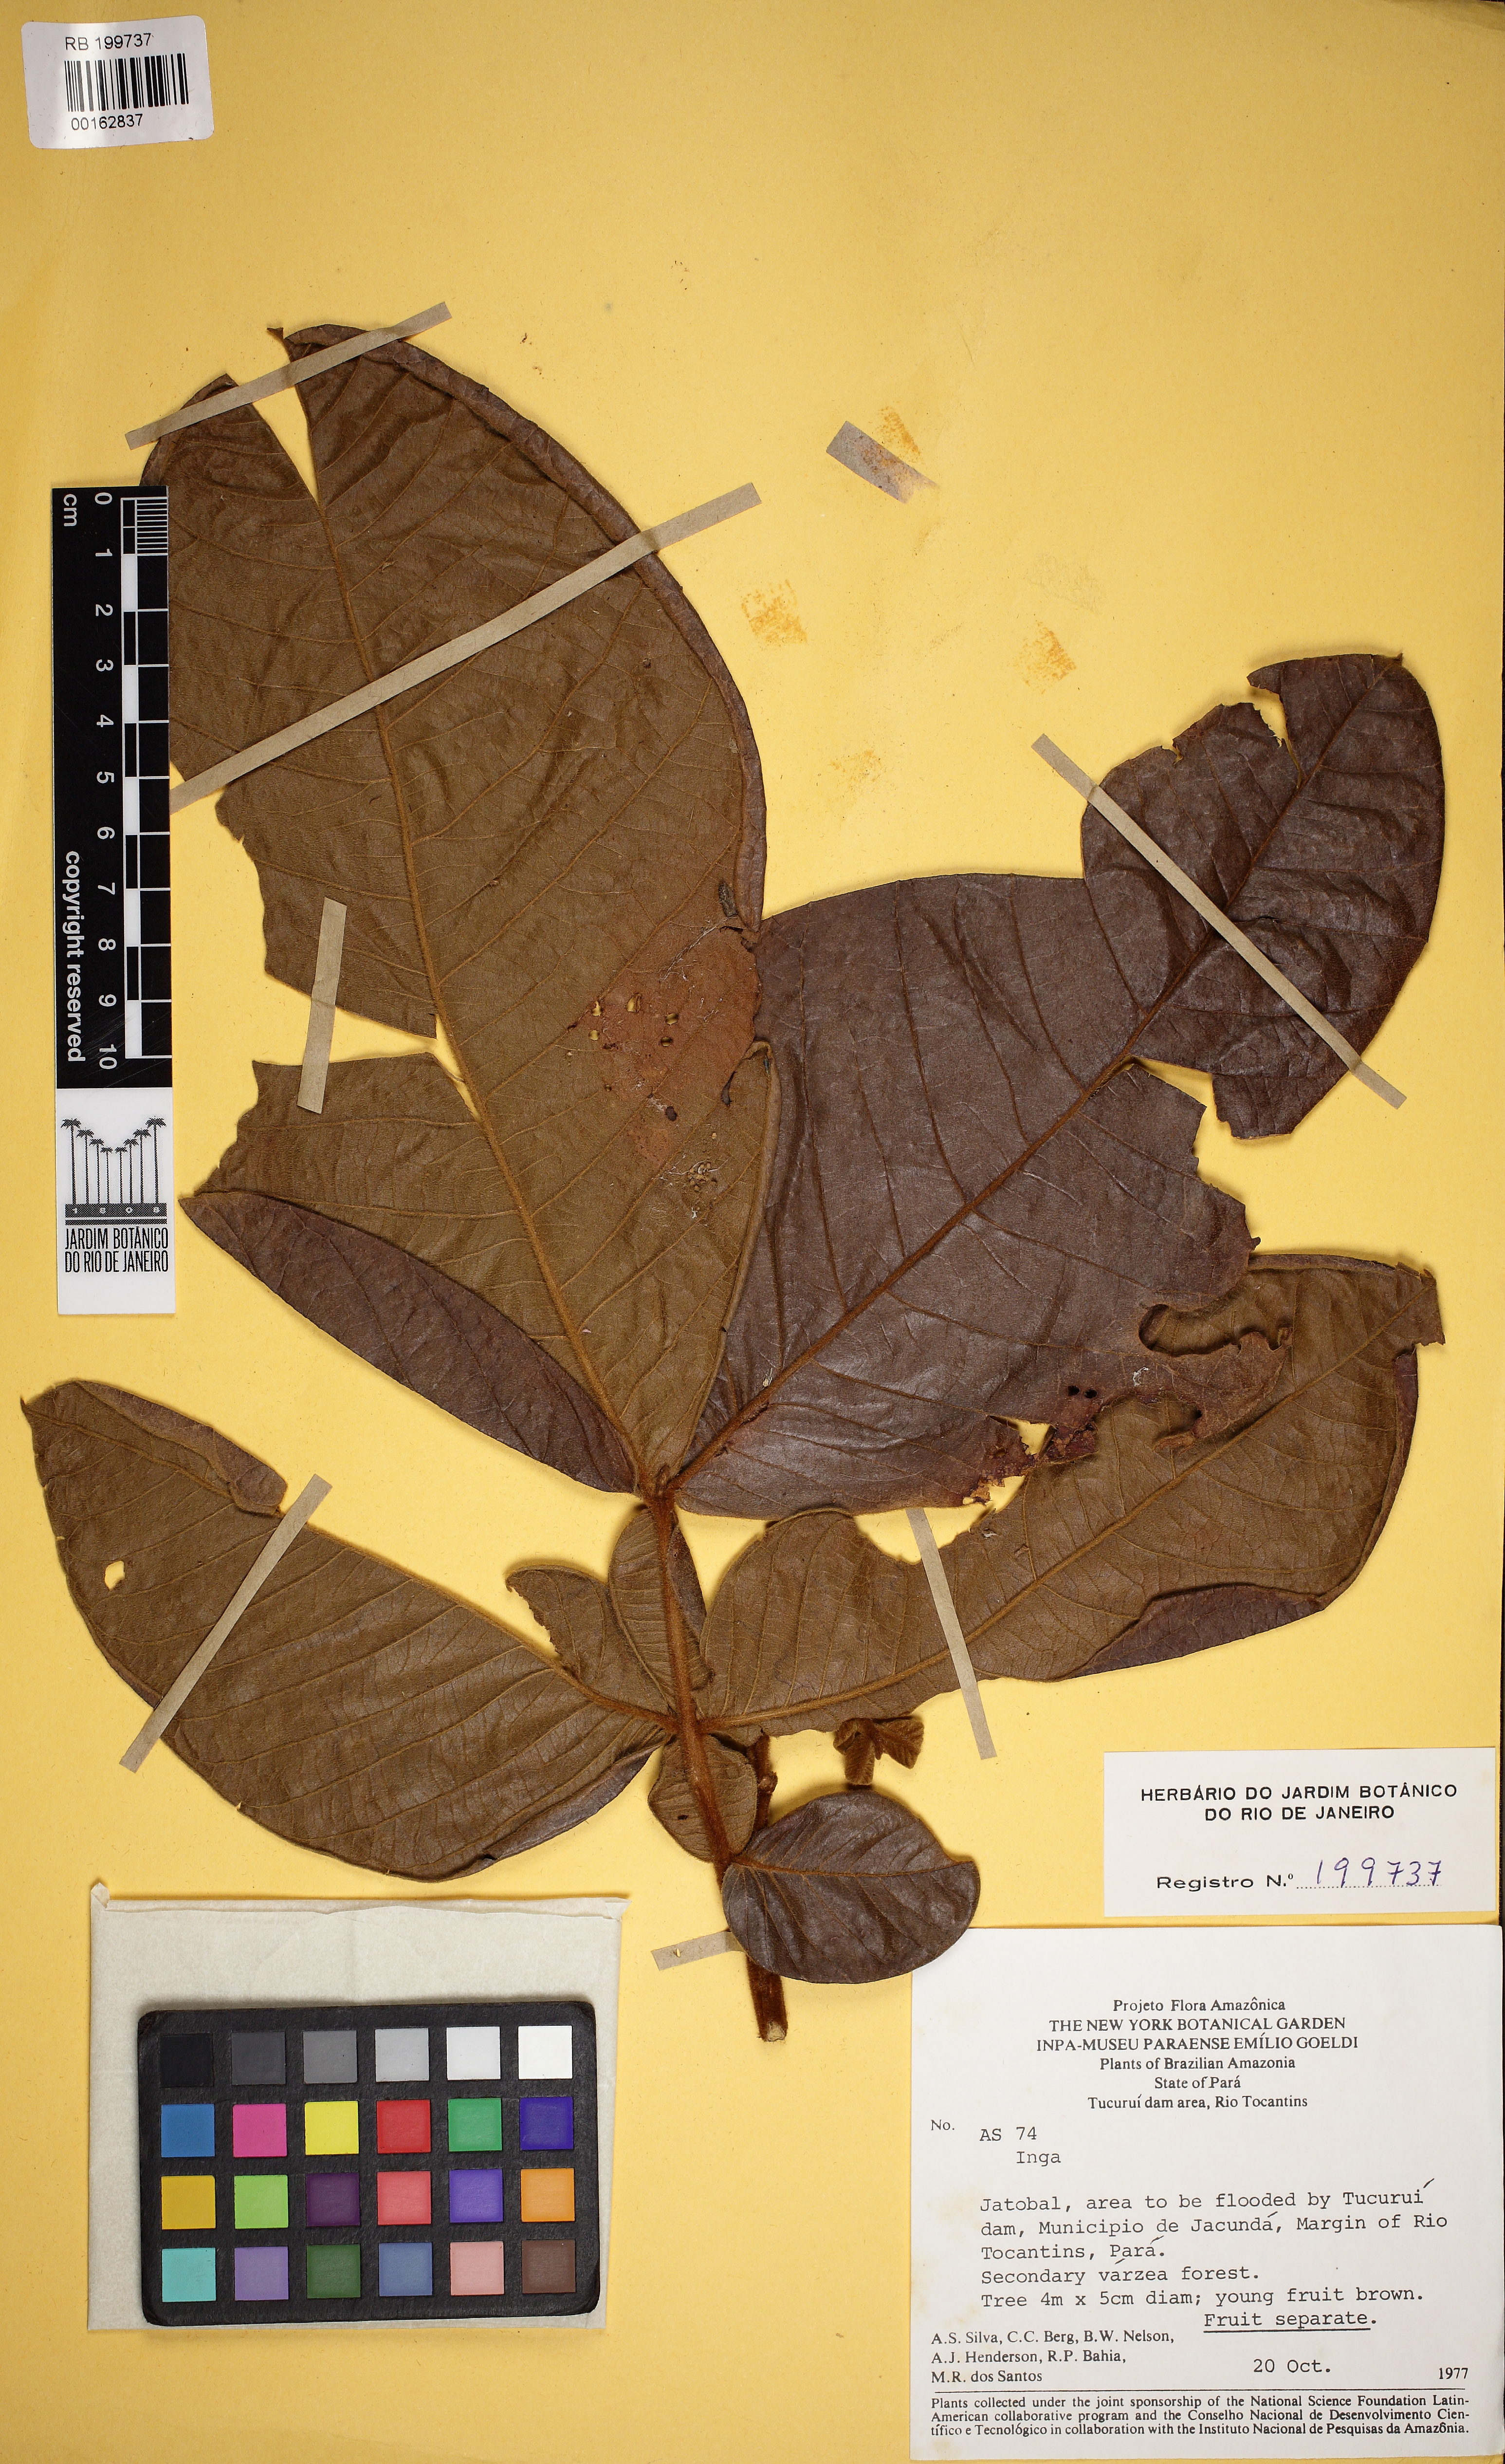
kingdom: Plantae
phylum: Tracheophyta
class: Magnoliopsida
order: Fabales
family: Fabaceae
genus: Inga
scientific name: Inga crassiflora
